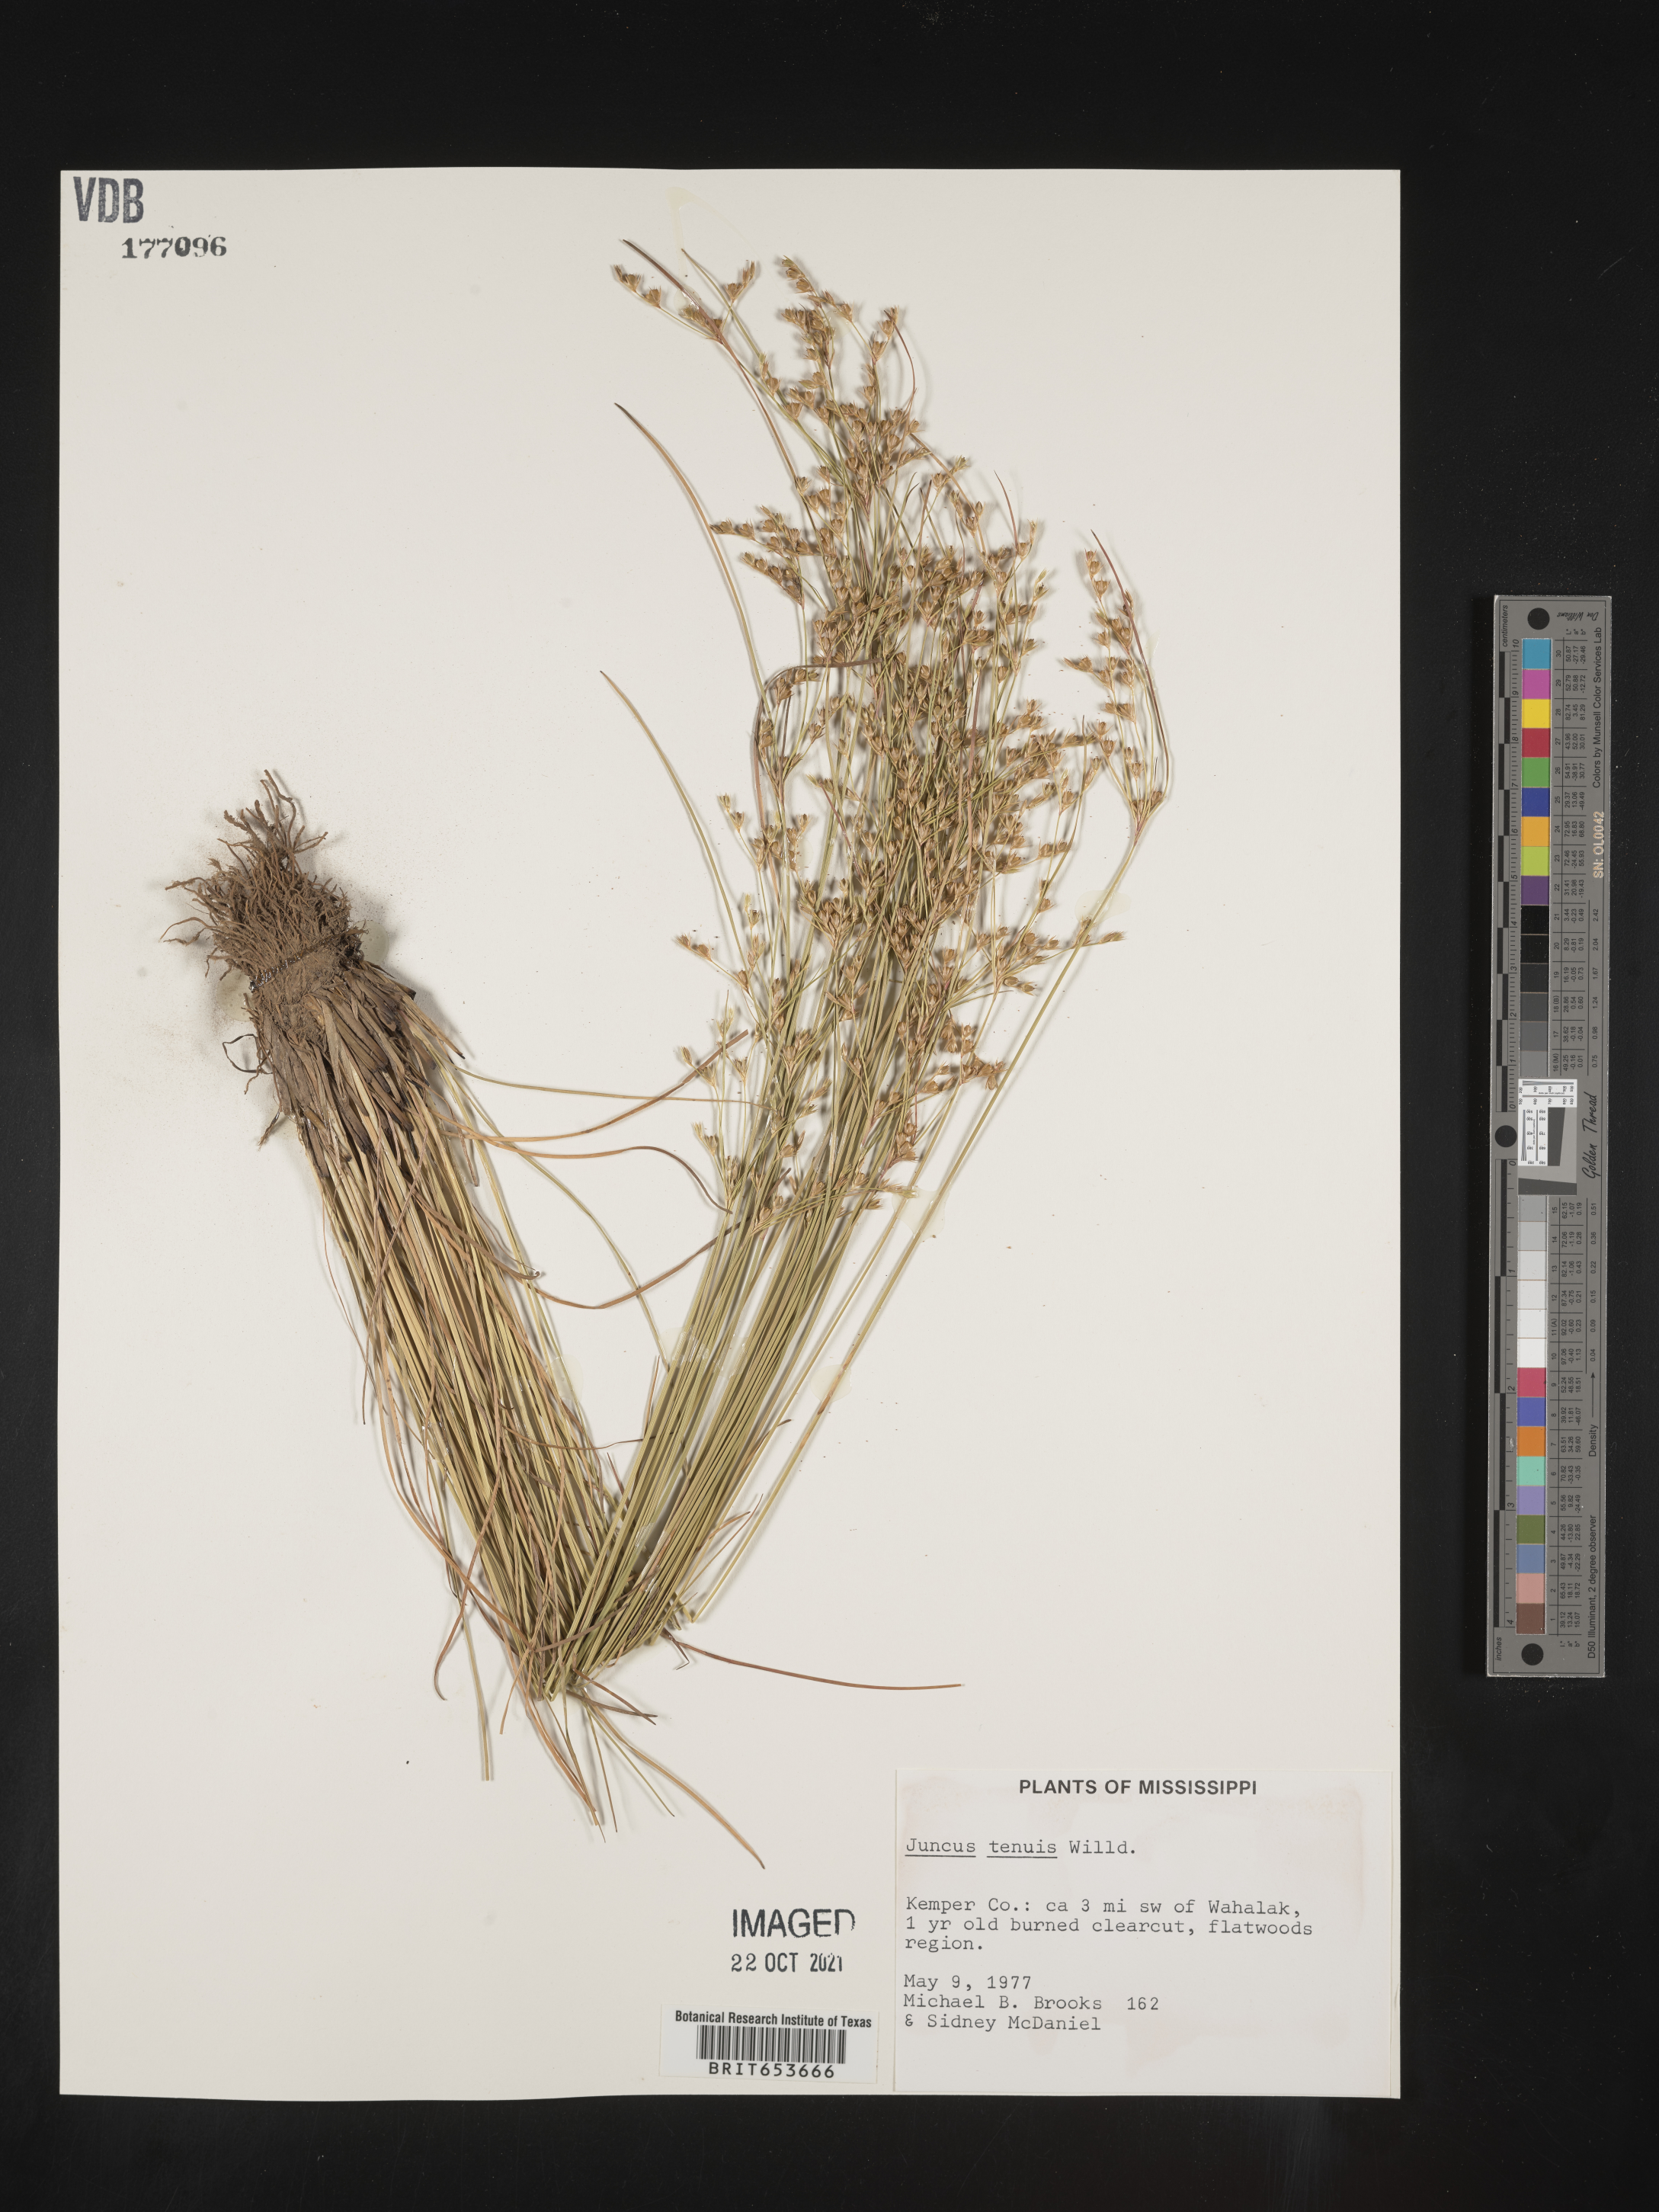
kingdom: Plantae
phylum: Tracheophyta
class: Liliopsida
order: Poales
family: Juncaceae
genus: Juncus
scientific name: Juncus tenuis
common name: Slender rush
